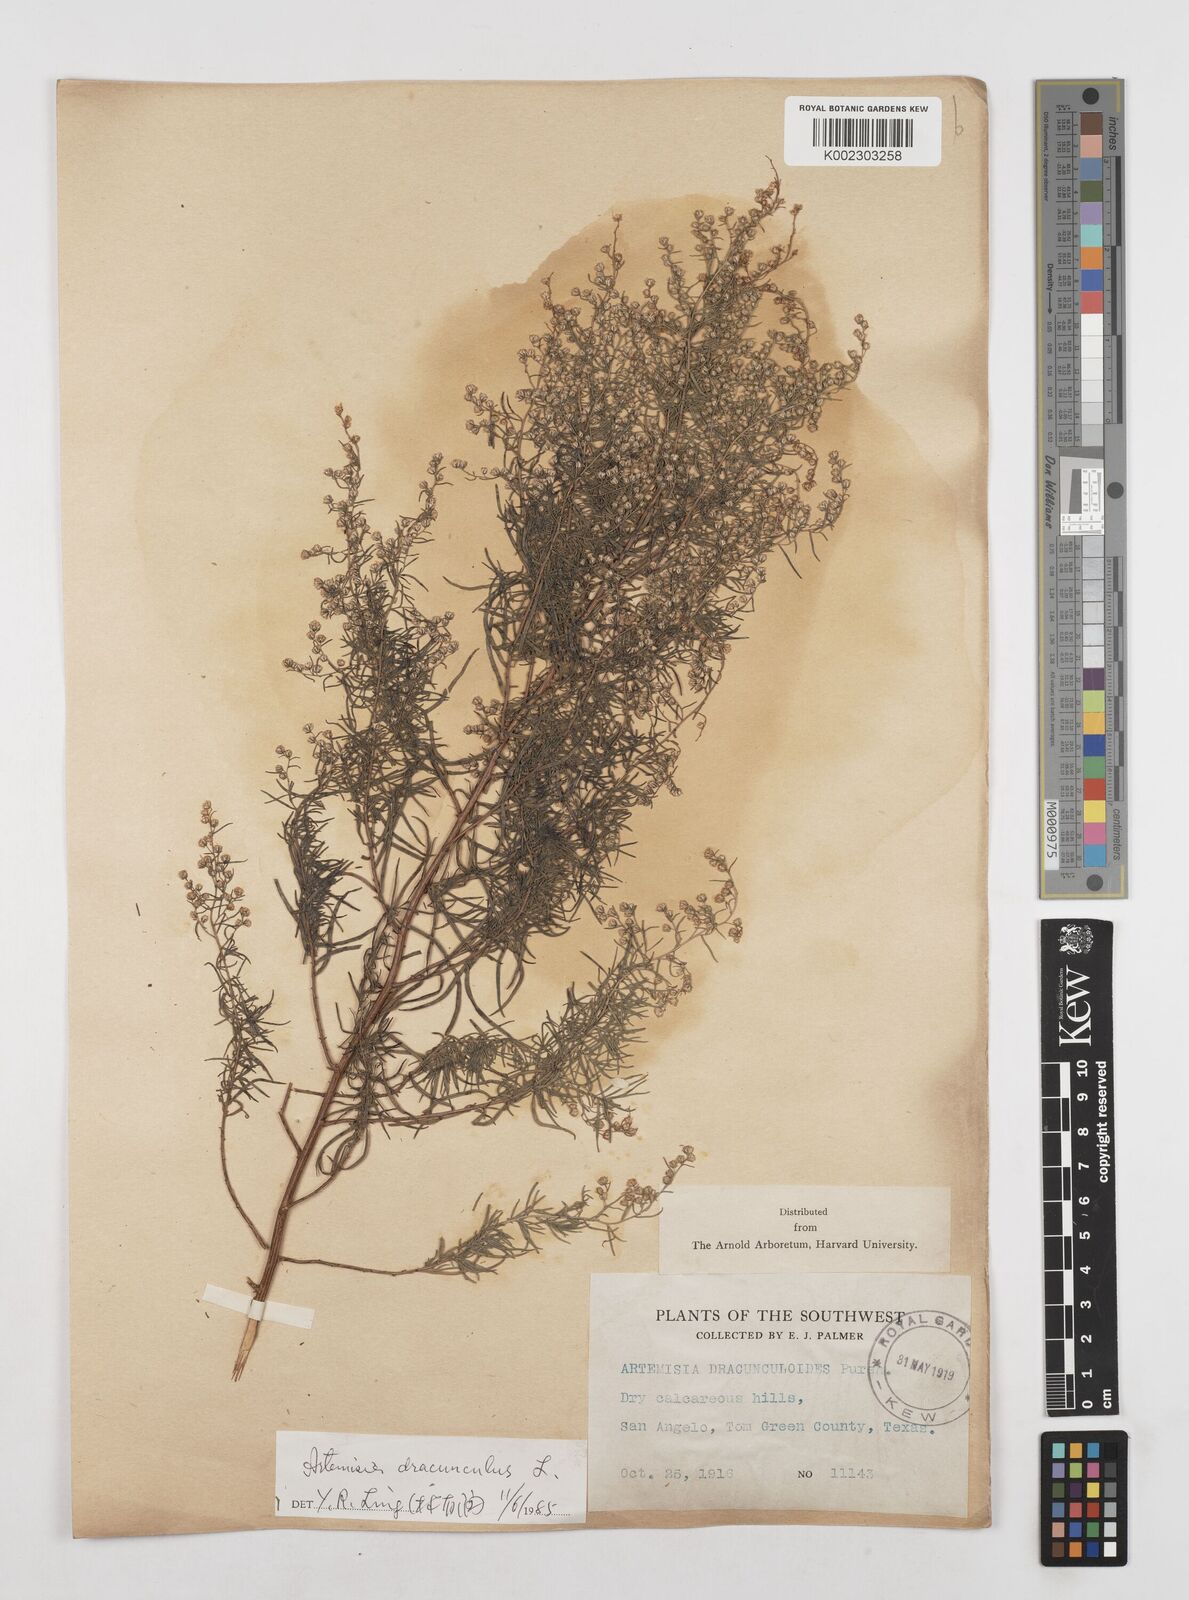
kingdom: Plantae
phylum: Tracheophyta
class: Magnoliopsida
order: Asterales
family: Asteraceae
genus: Artemisia
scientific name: Artemisia dracunculus
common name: Tarragon
